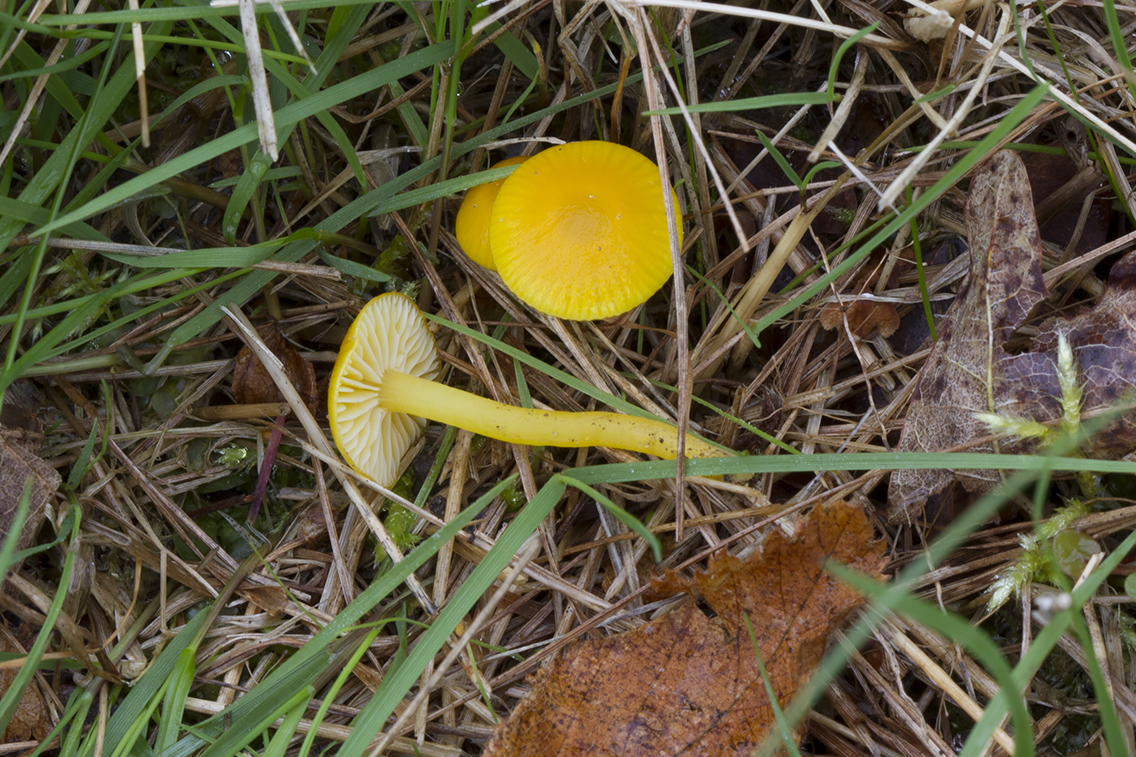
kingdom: Fungi
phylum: Basidiomycota
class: Agaricomycetes
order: Agaricales
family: Hygrophoraceae
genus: Hygrocybe
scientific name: Hygrocybe ceracea
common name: voksgul vokshat
